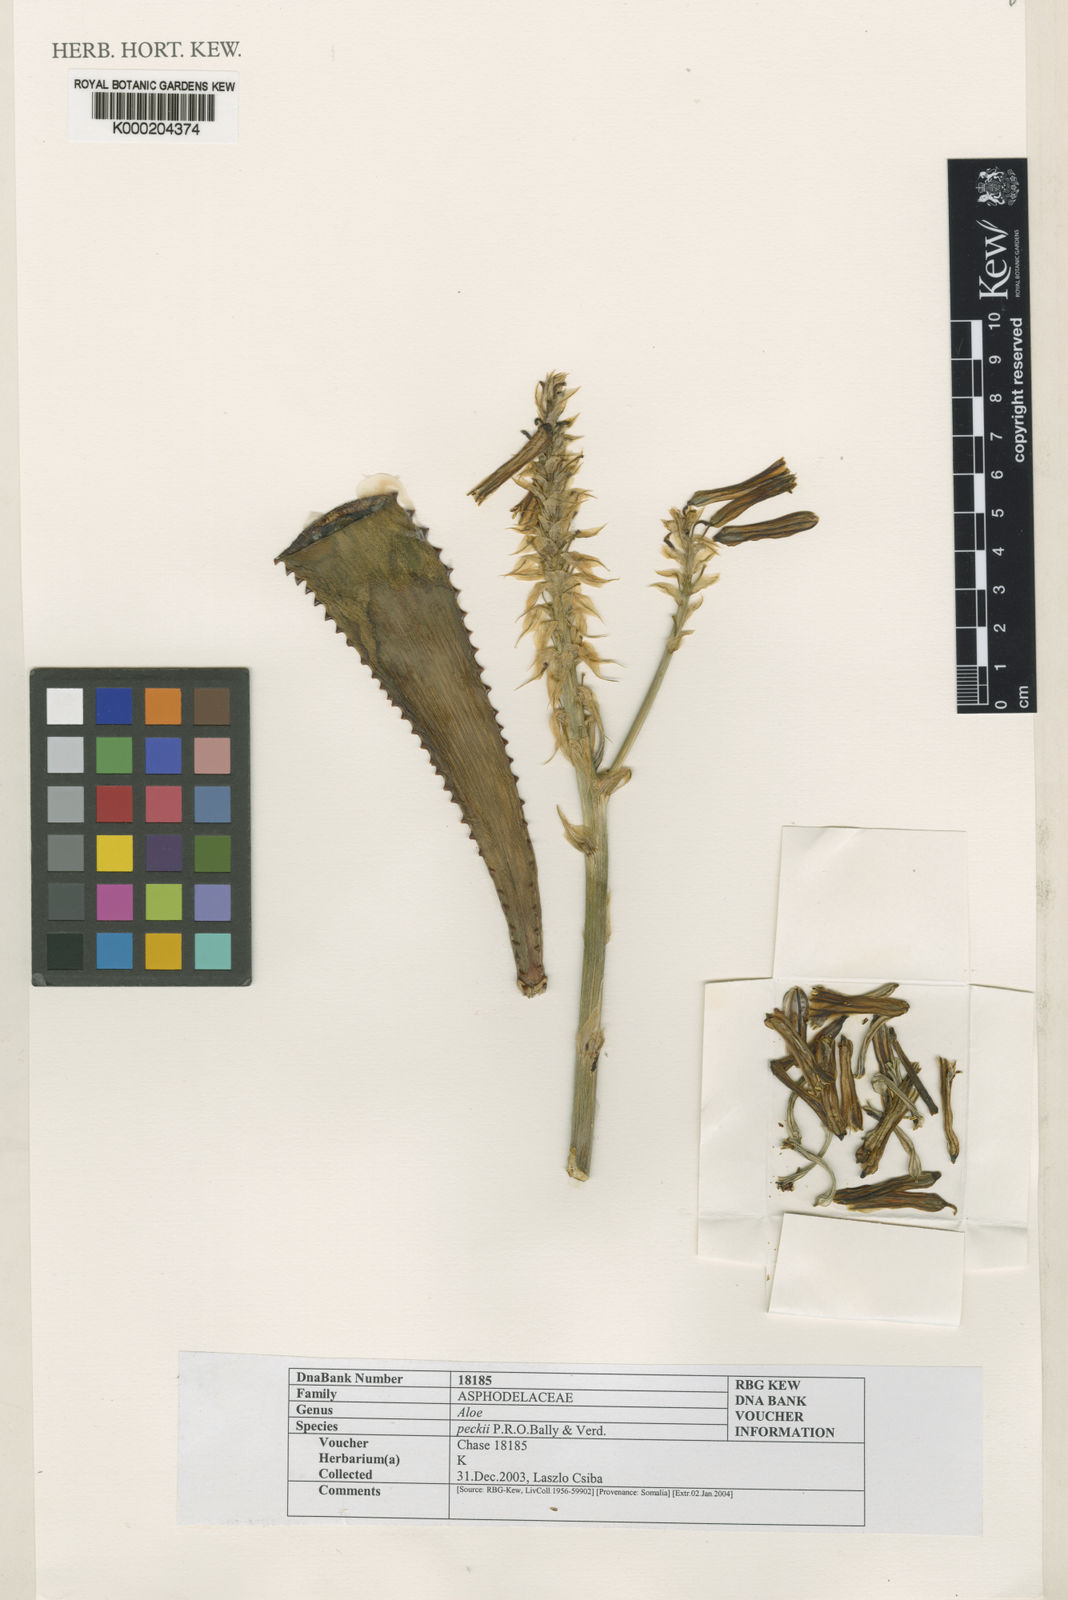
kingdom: Plantae
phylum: Tracheophyta
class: Liliopsida
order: Asparagales
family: Asphodelaceae
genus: Aloe
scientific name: Aloe peckii
